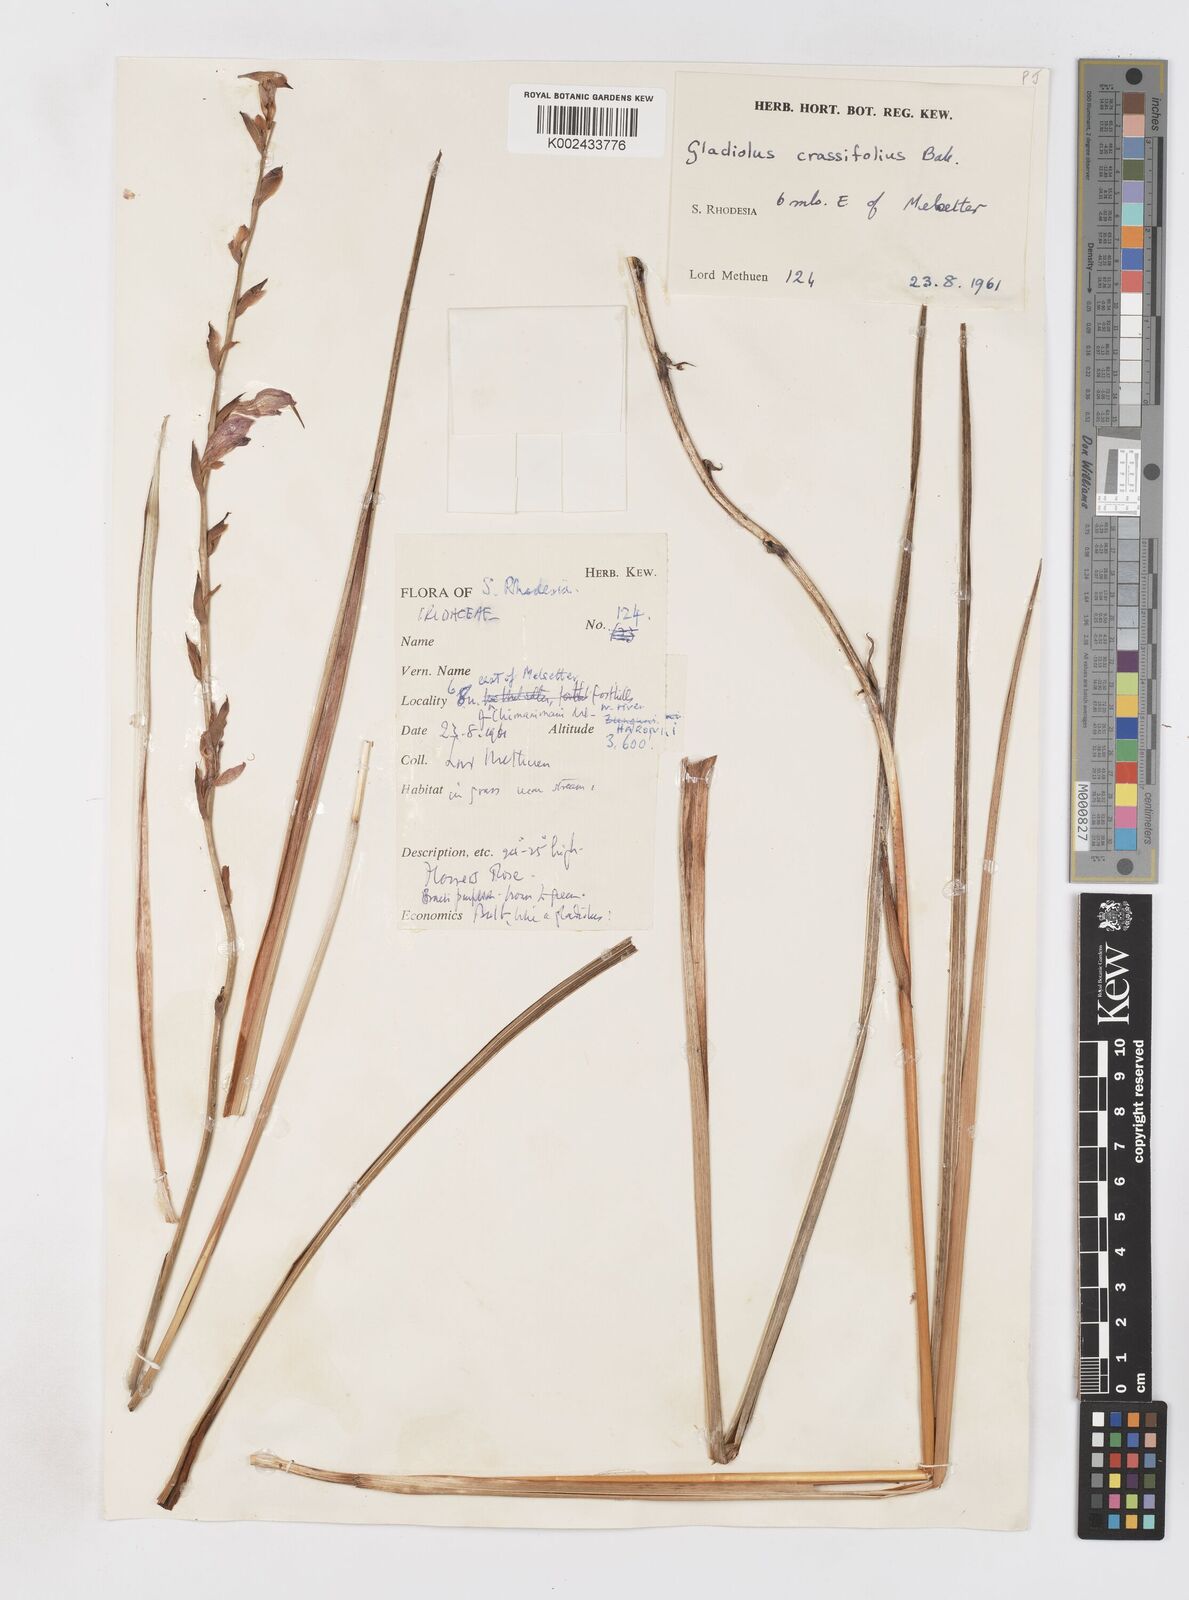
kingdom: Plantae
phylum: Tracheophyta
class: Liliopsida
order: Asparagales
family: Iridaceae
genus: Gladiolus
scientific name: Gladiolus crassifolius
